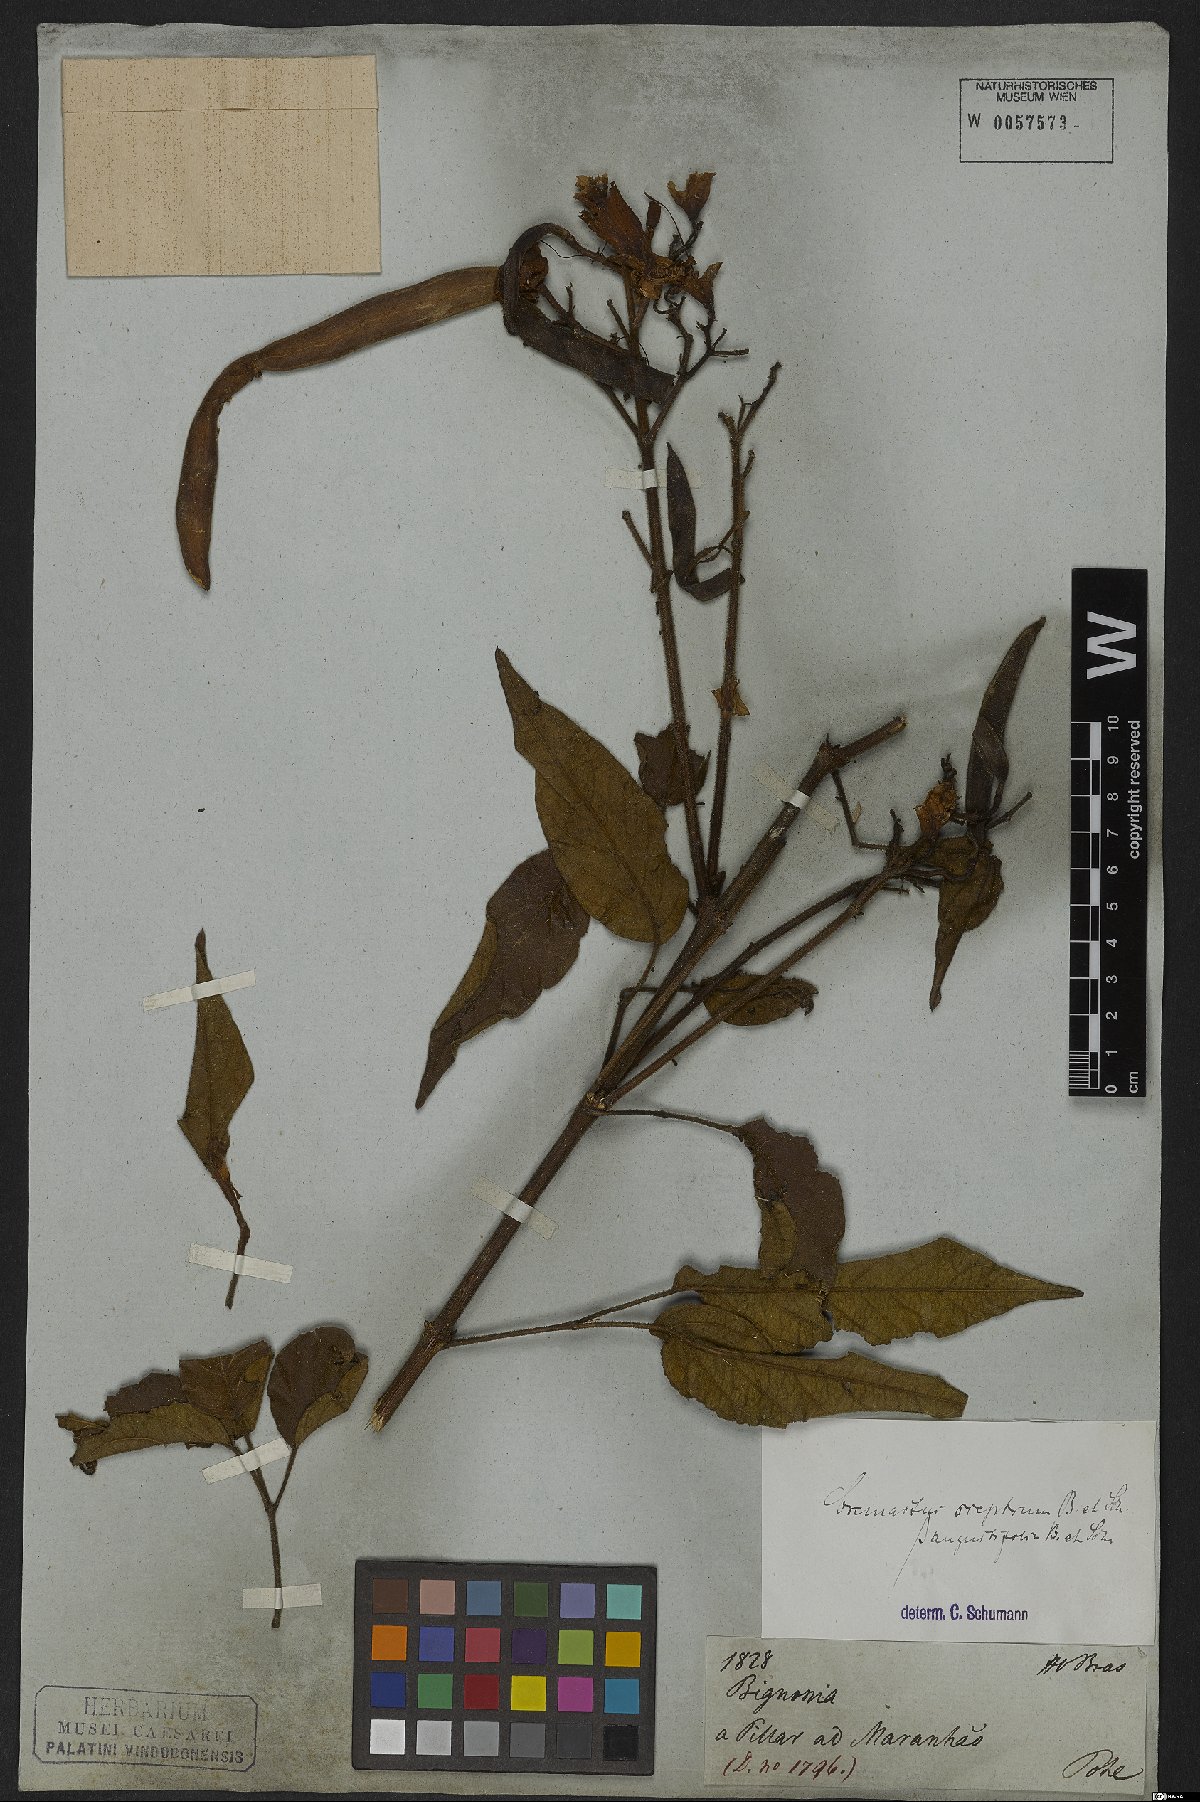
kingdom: Plantae
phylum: Tracheophyta
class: Magnoliopsida
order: Lamiales
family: Bignoniaceae
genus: Cuspidaria
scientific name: Cuspidaria sceptrum
